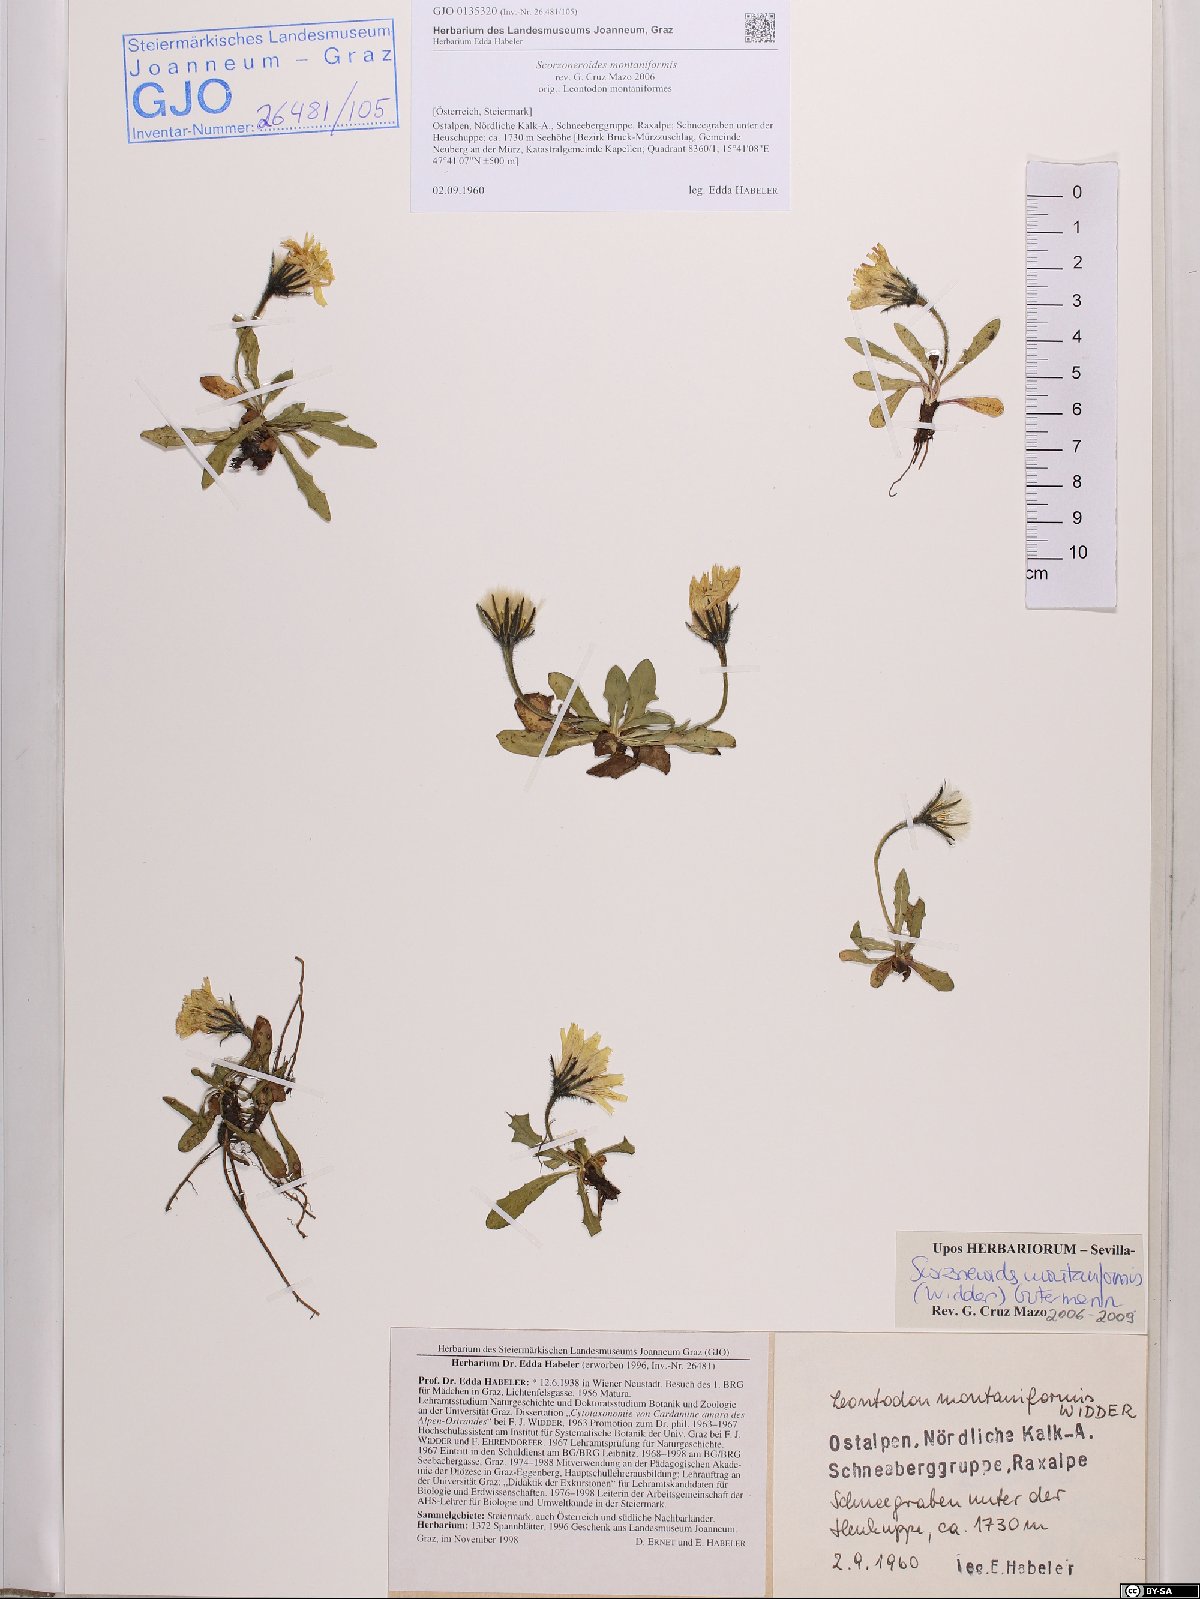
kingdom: Plantae
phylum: Tracheophyta
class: Magnoliopsida
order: Asterales
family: Asteraceae
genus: Scorzoneroides
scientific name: Scorzoneroides montana
